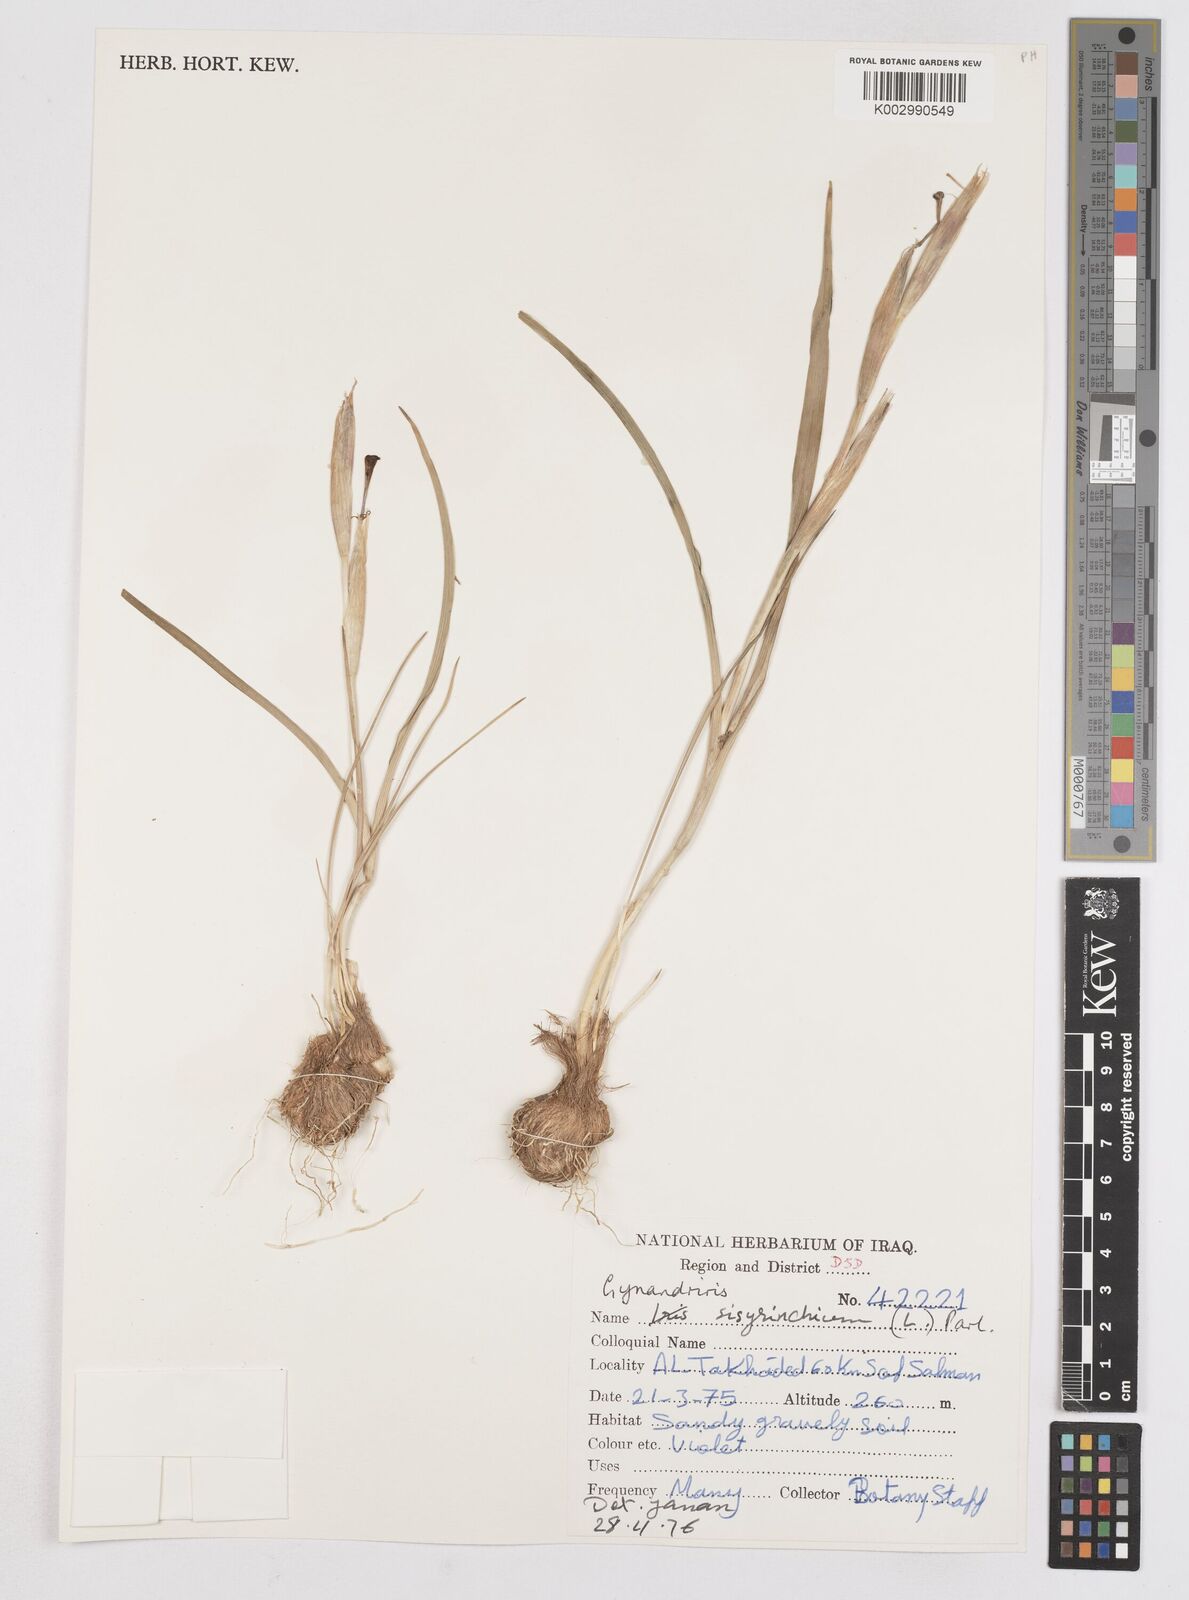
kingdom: Plantae
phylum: Tracheophyta
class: Liliopsida
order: Asparagales
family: Iridaceae
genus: Moraea
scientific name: Moraea sisyrinchium
